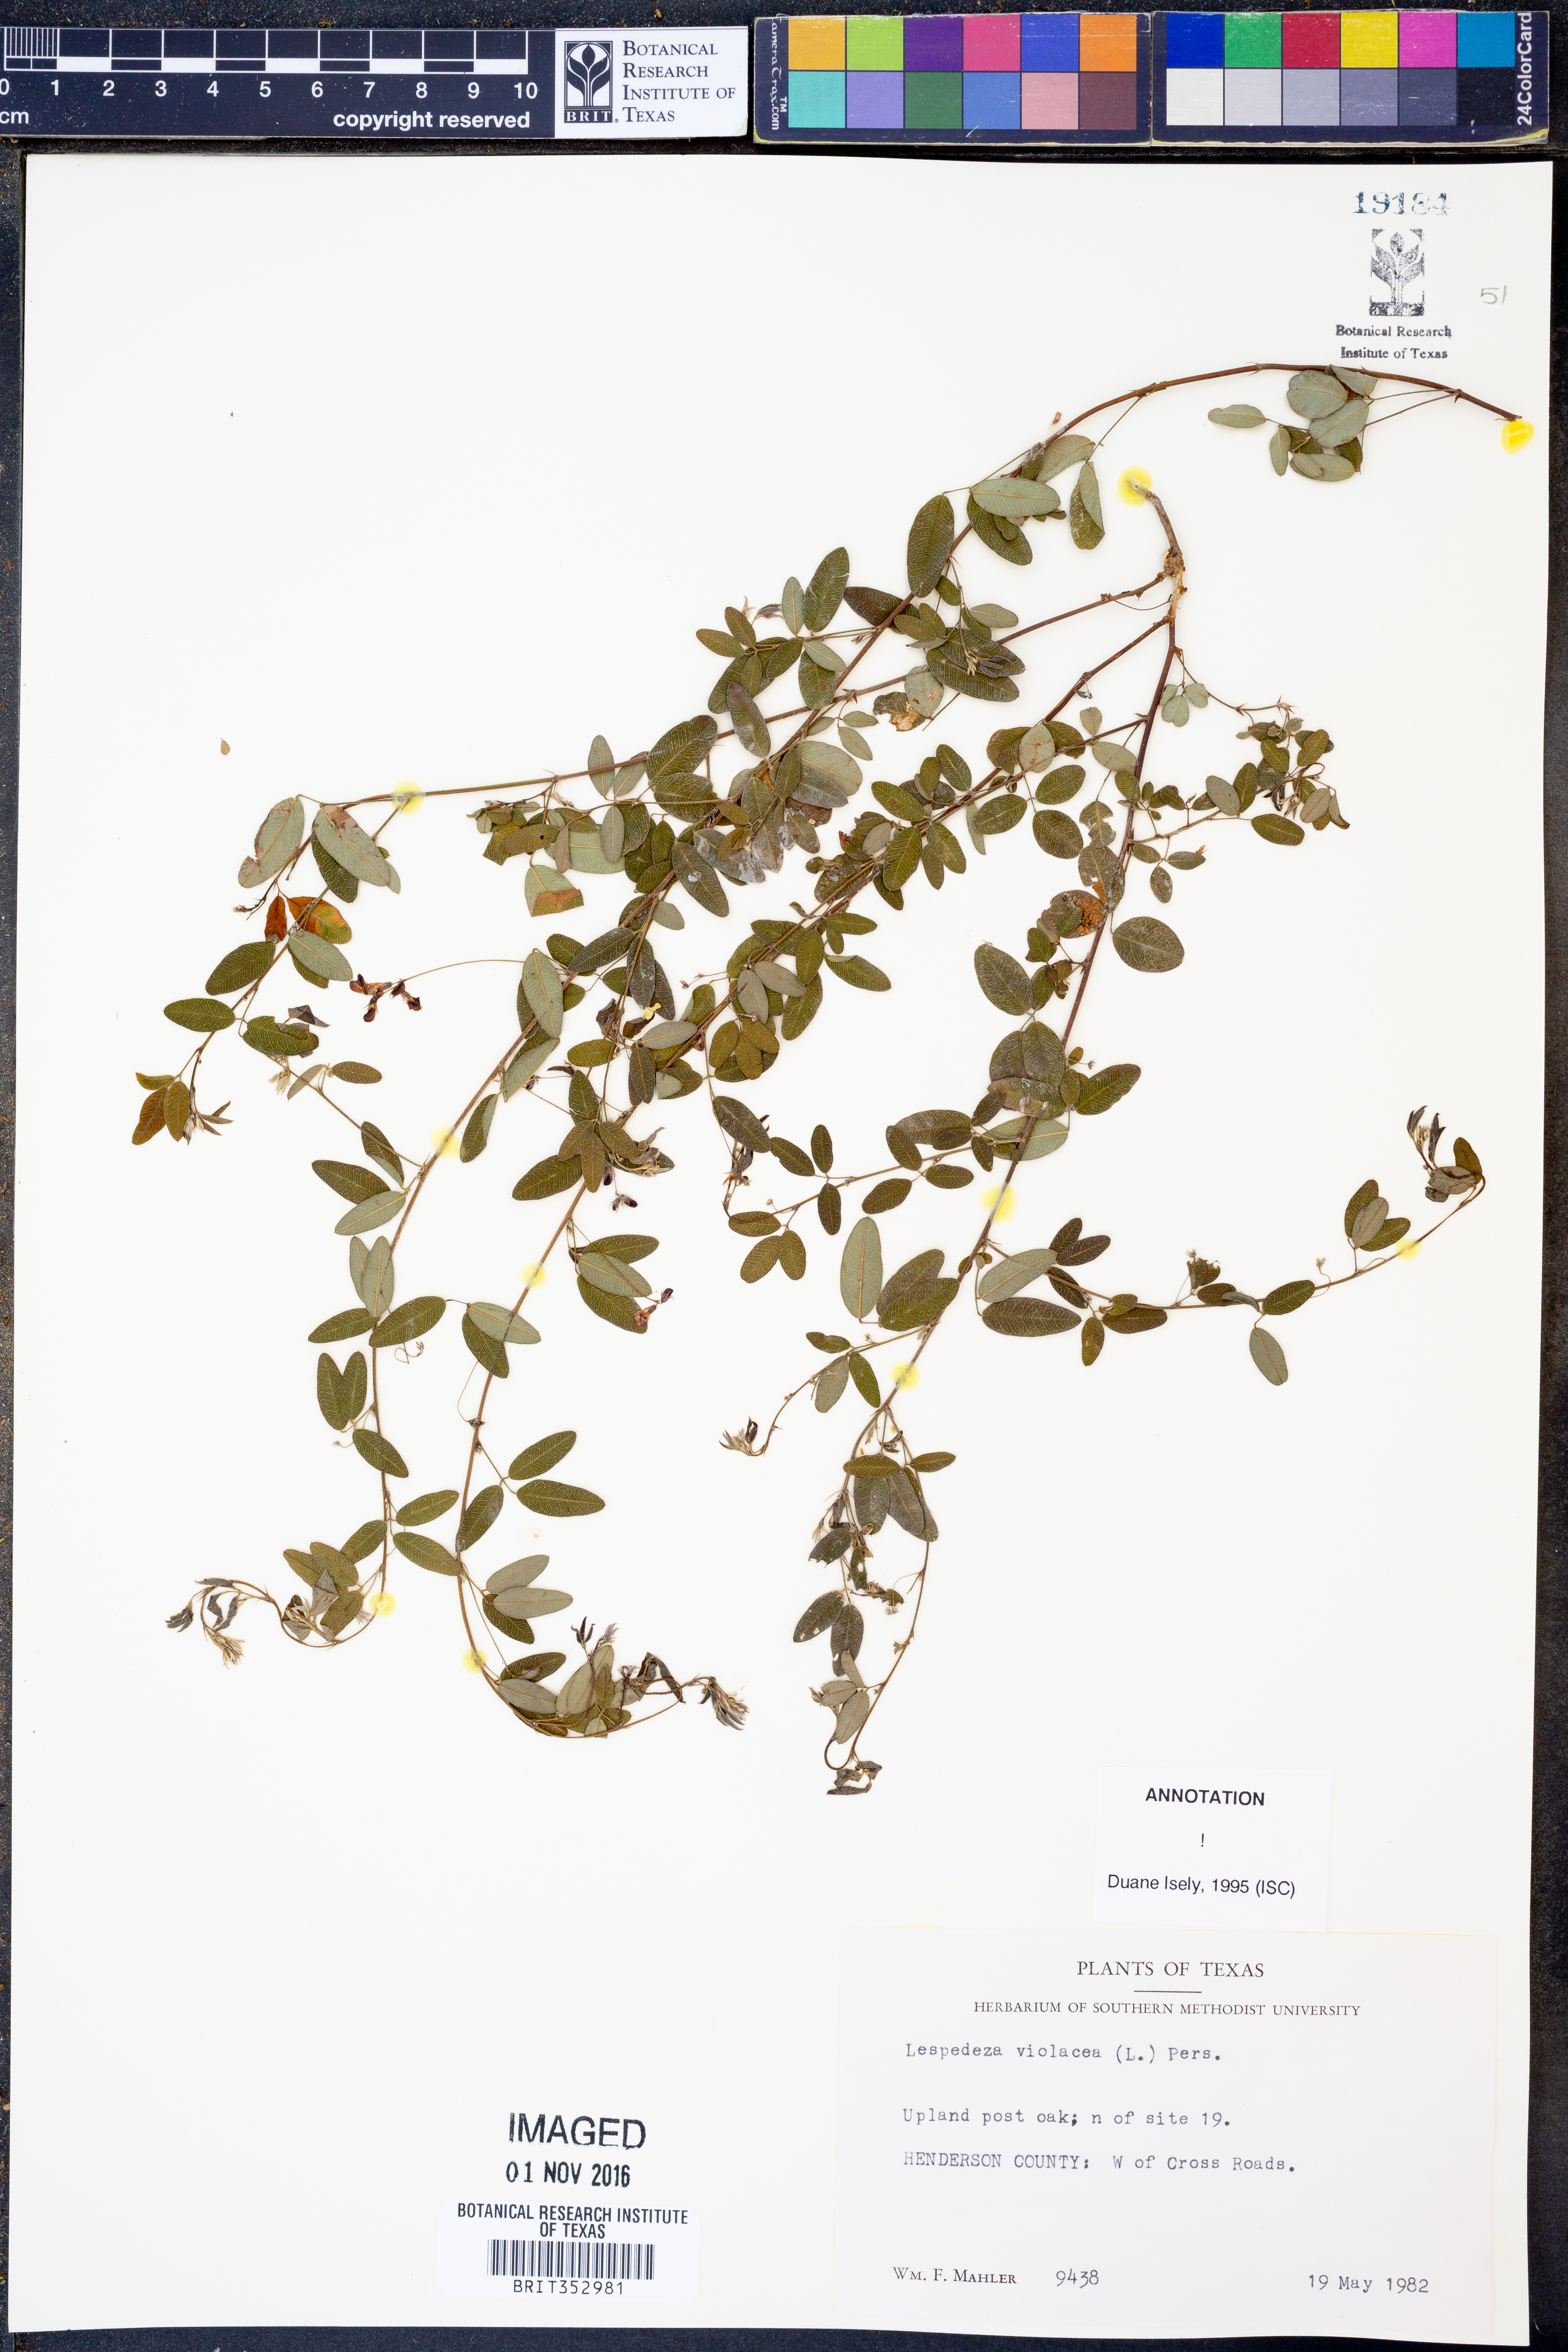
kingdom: Plantae
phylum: Tracheophyta
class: Magnoliopsida
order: Fabales
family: Fabaceae
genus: Lespedeza
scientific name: Lespedeza violacea
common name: Wand bush-clover
